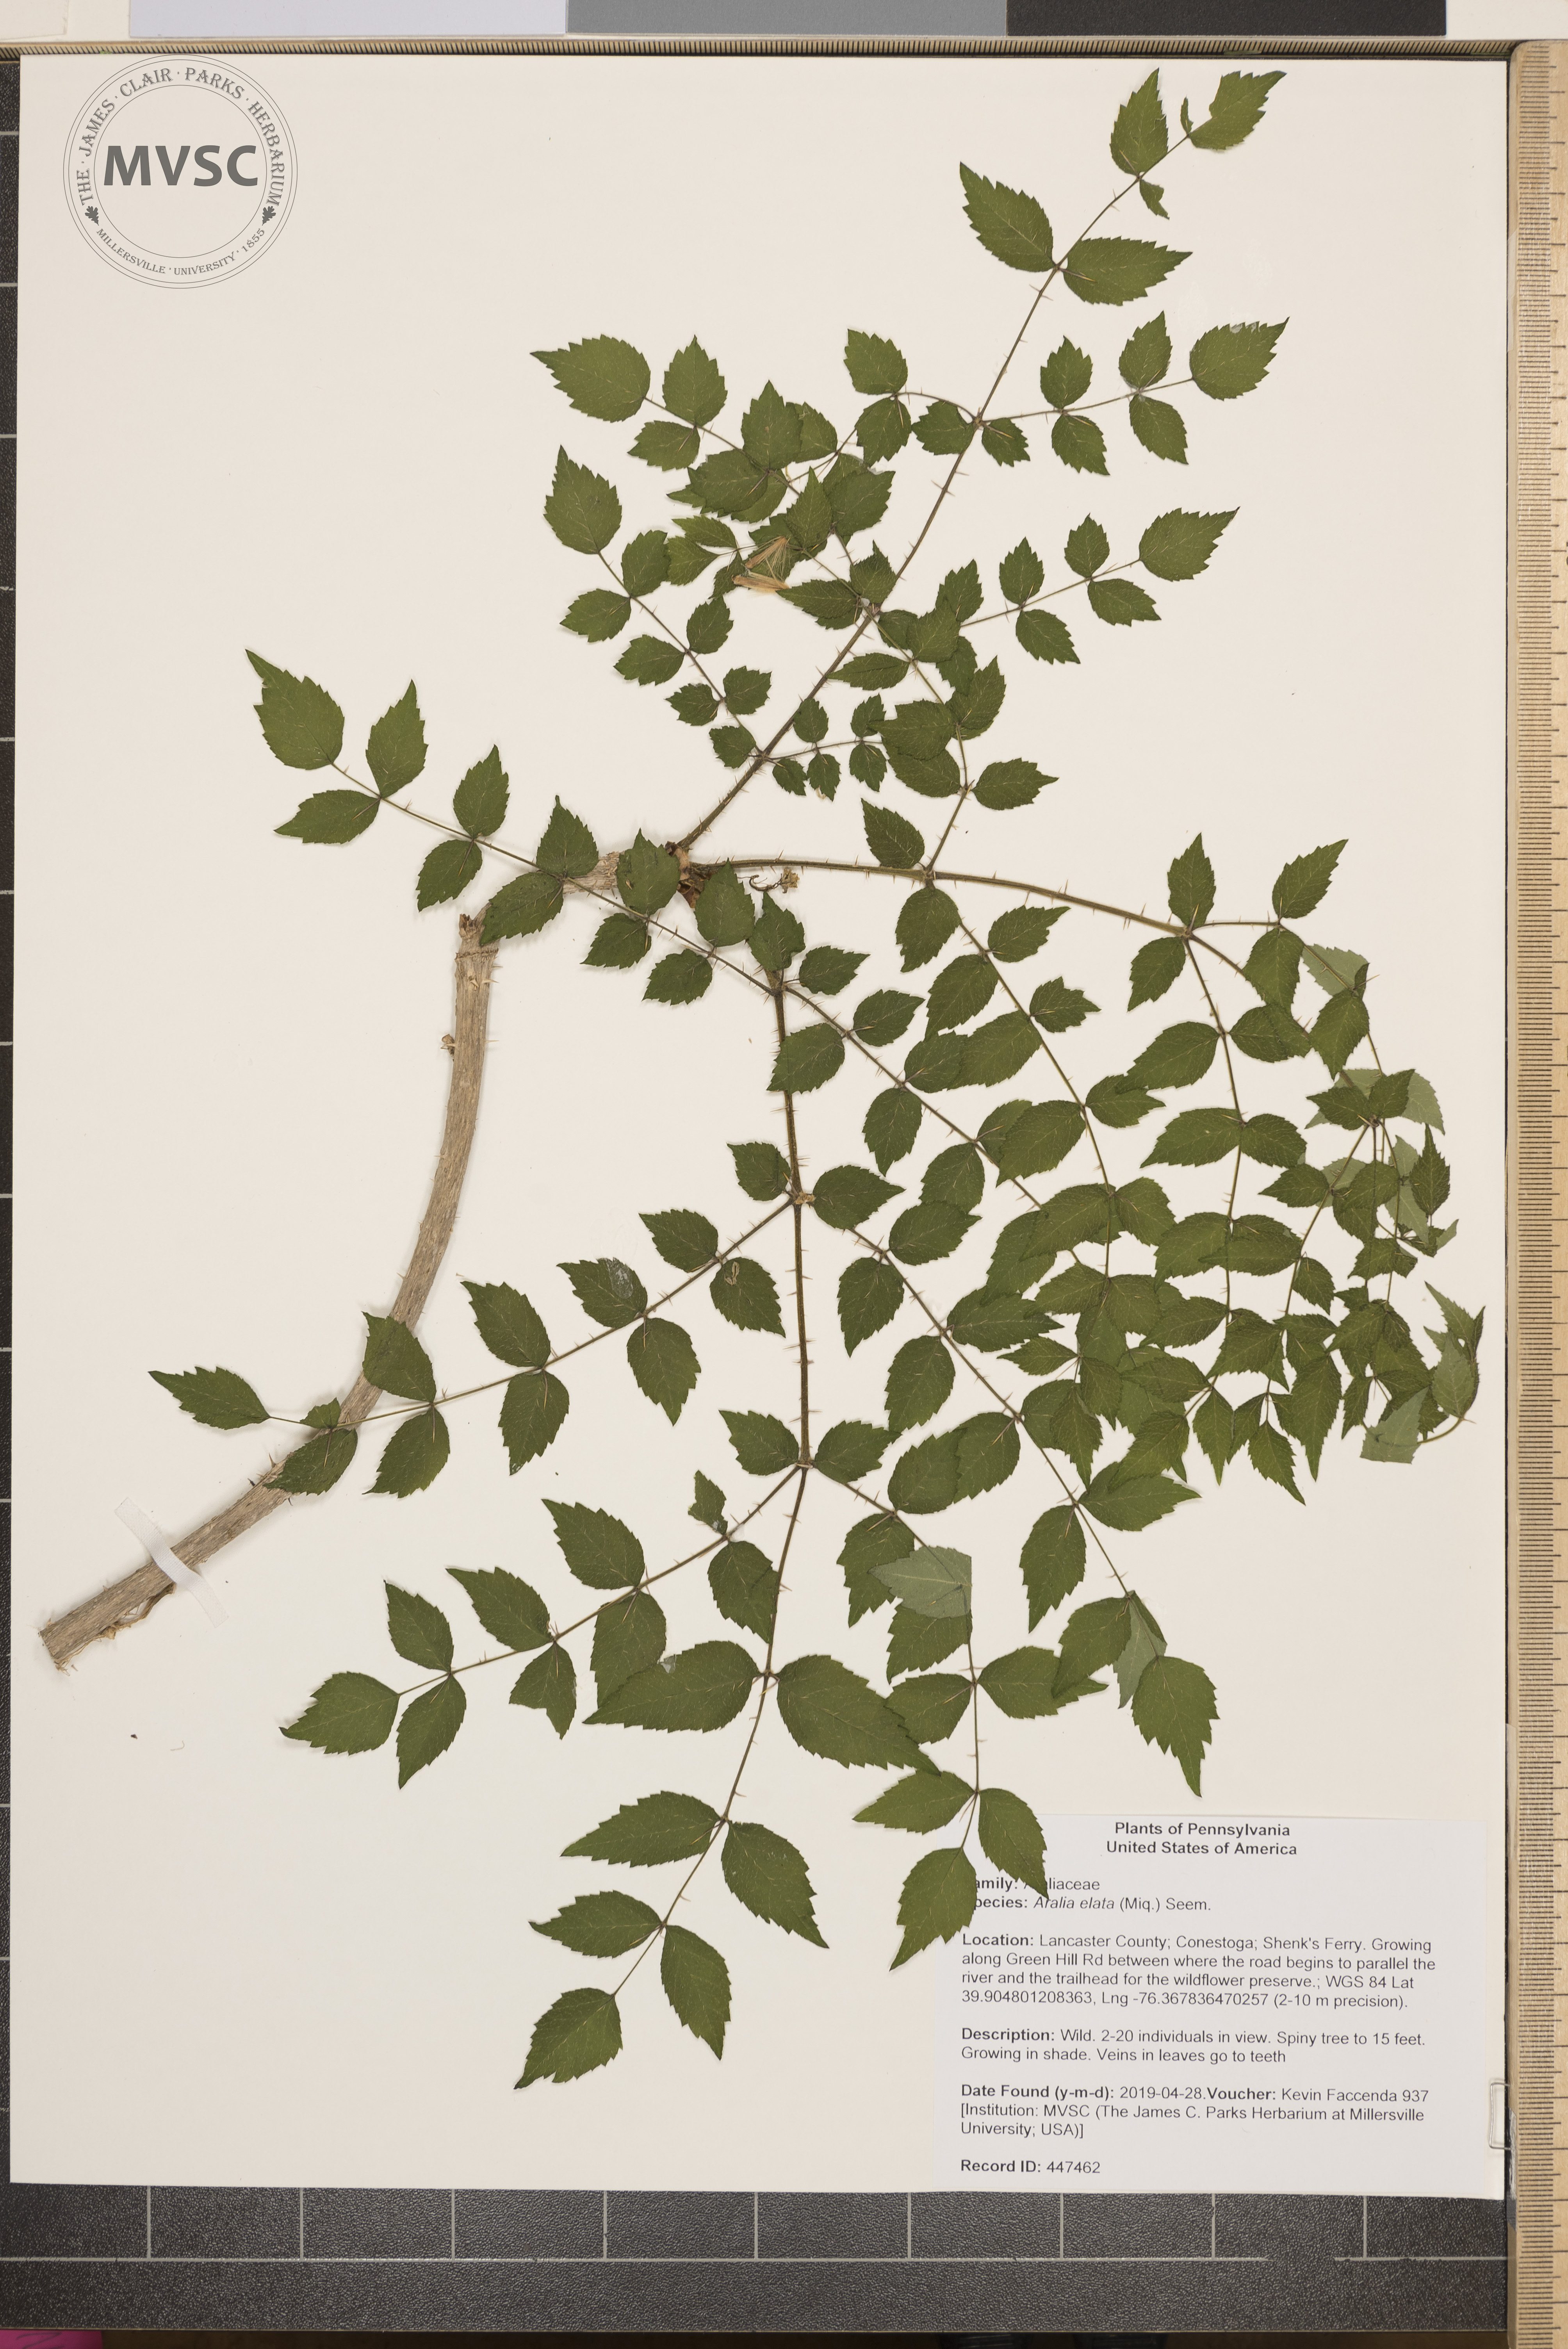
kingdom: Plantae
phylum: Tracheophyta
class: Magnoliopsida
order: Apiales
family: Araliaceae
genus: Aralia
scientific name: Aralia elata
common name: Japanese angelica-tree
